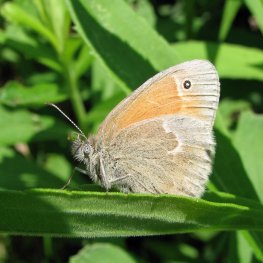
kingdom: Animalia
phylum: Arthropoda
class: Insecta
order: Lepidoptera
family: Nymphalidae
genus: Coenonympha
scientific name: Coenonympha tullia
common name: Large Heath
